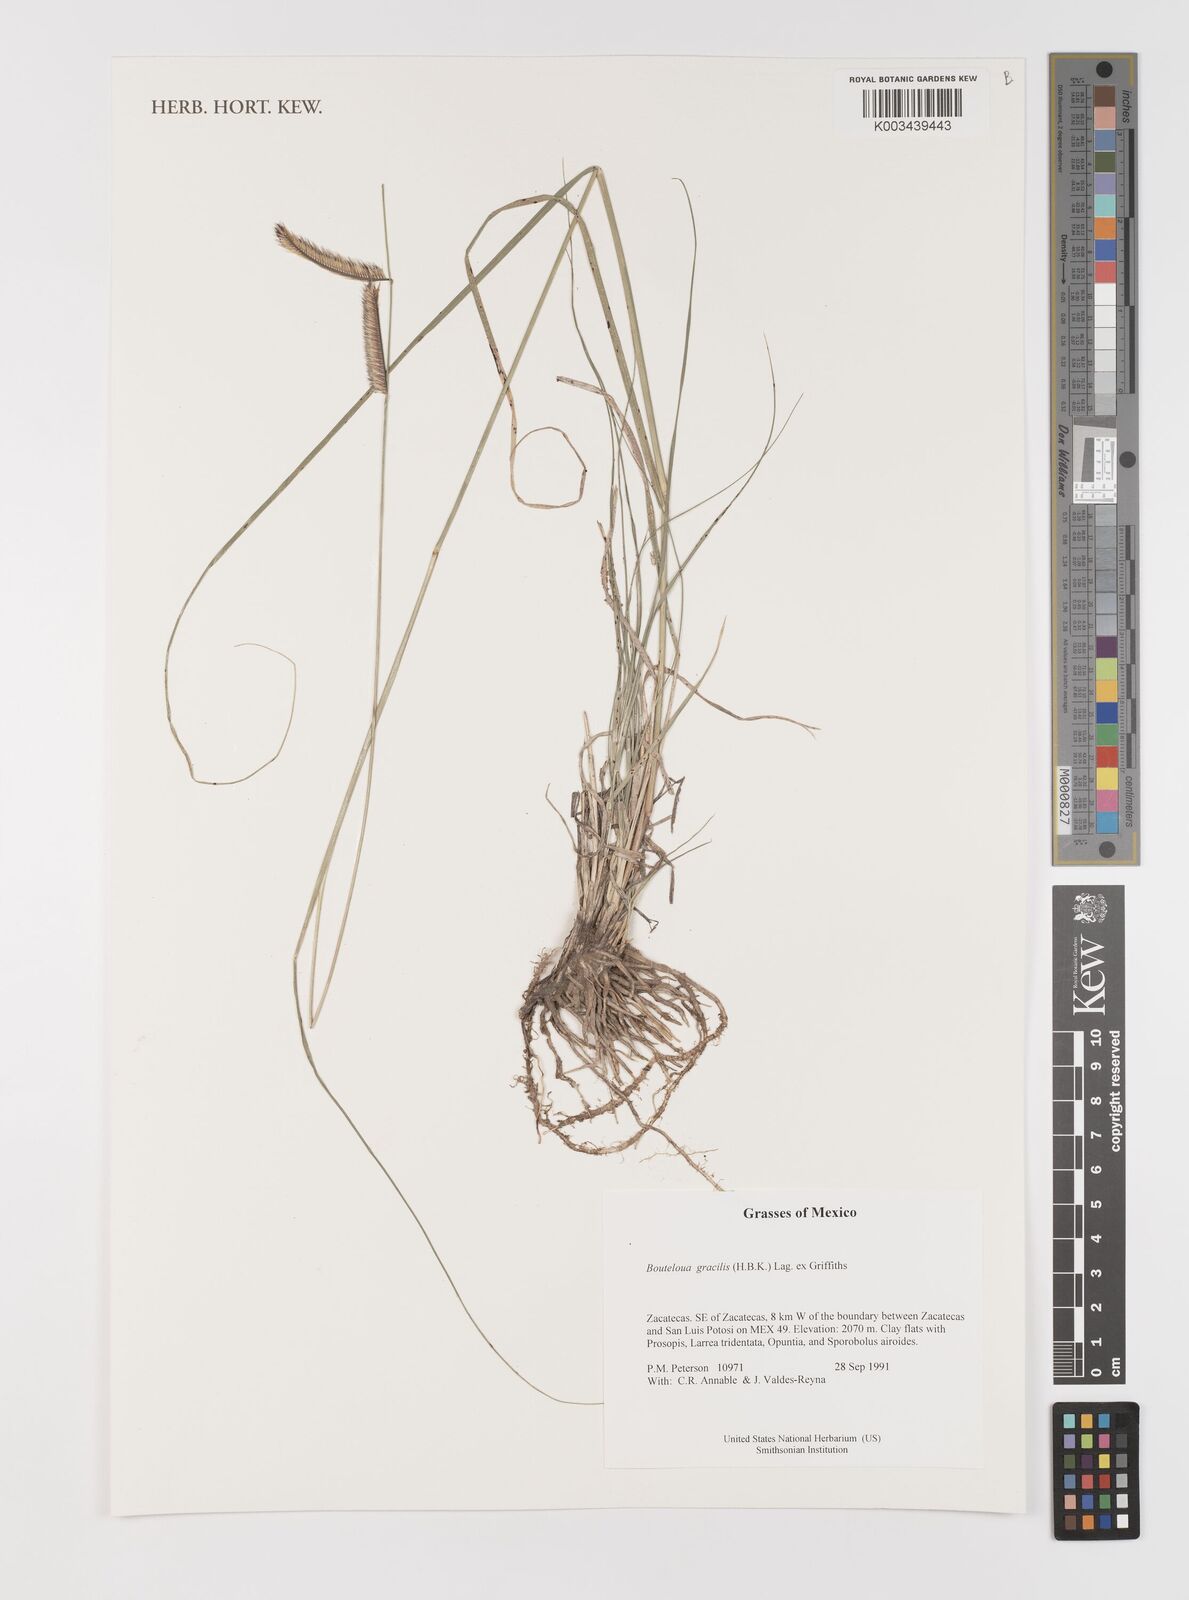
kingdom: Plantae
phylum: Tracheophyta
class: Liliopsida
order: Poales
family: Poaceae
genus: Bouteloua
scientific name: Bouteloua aristidoides
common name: Needle grama
